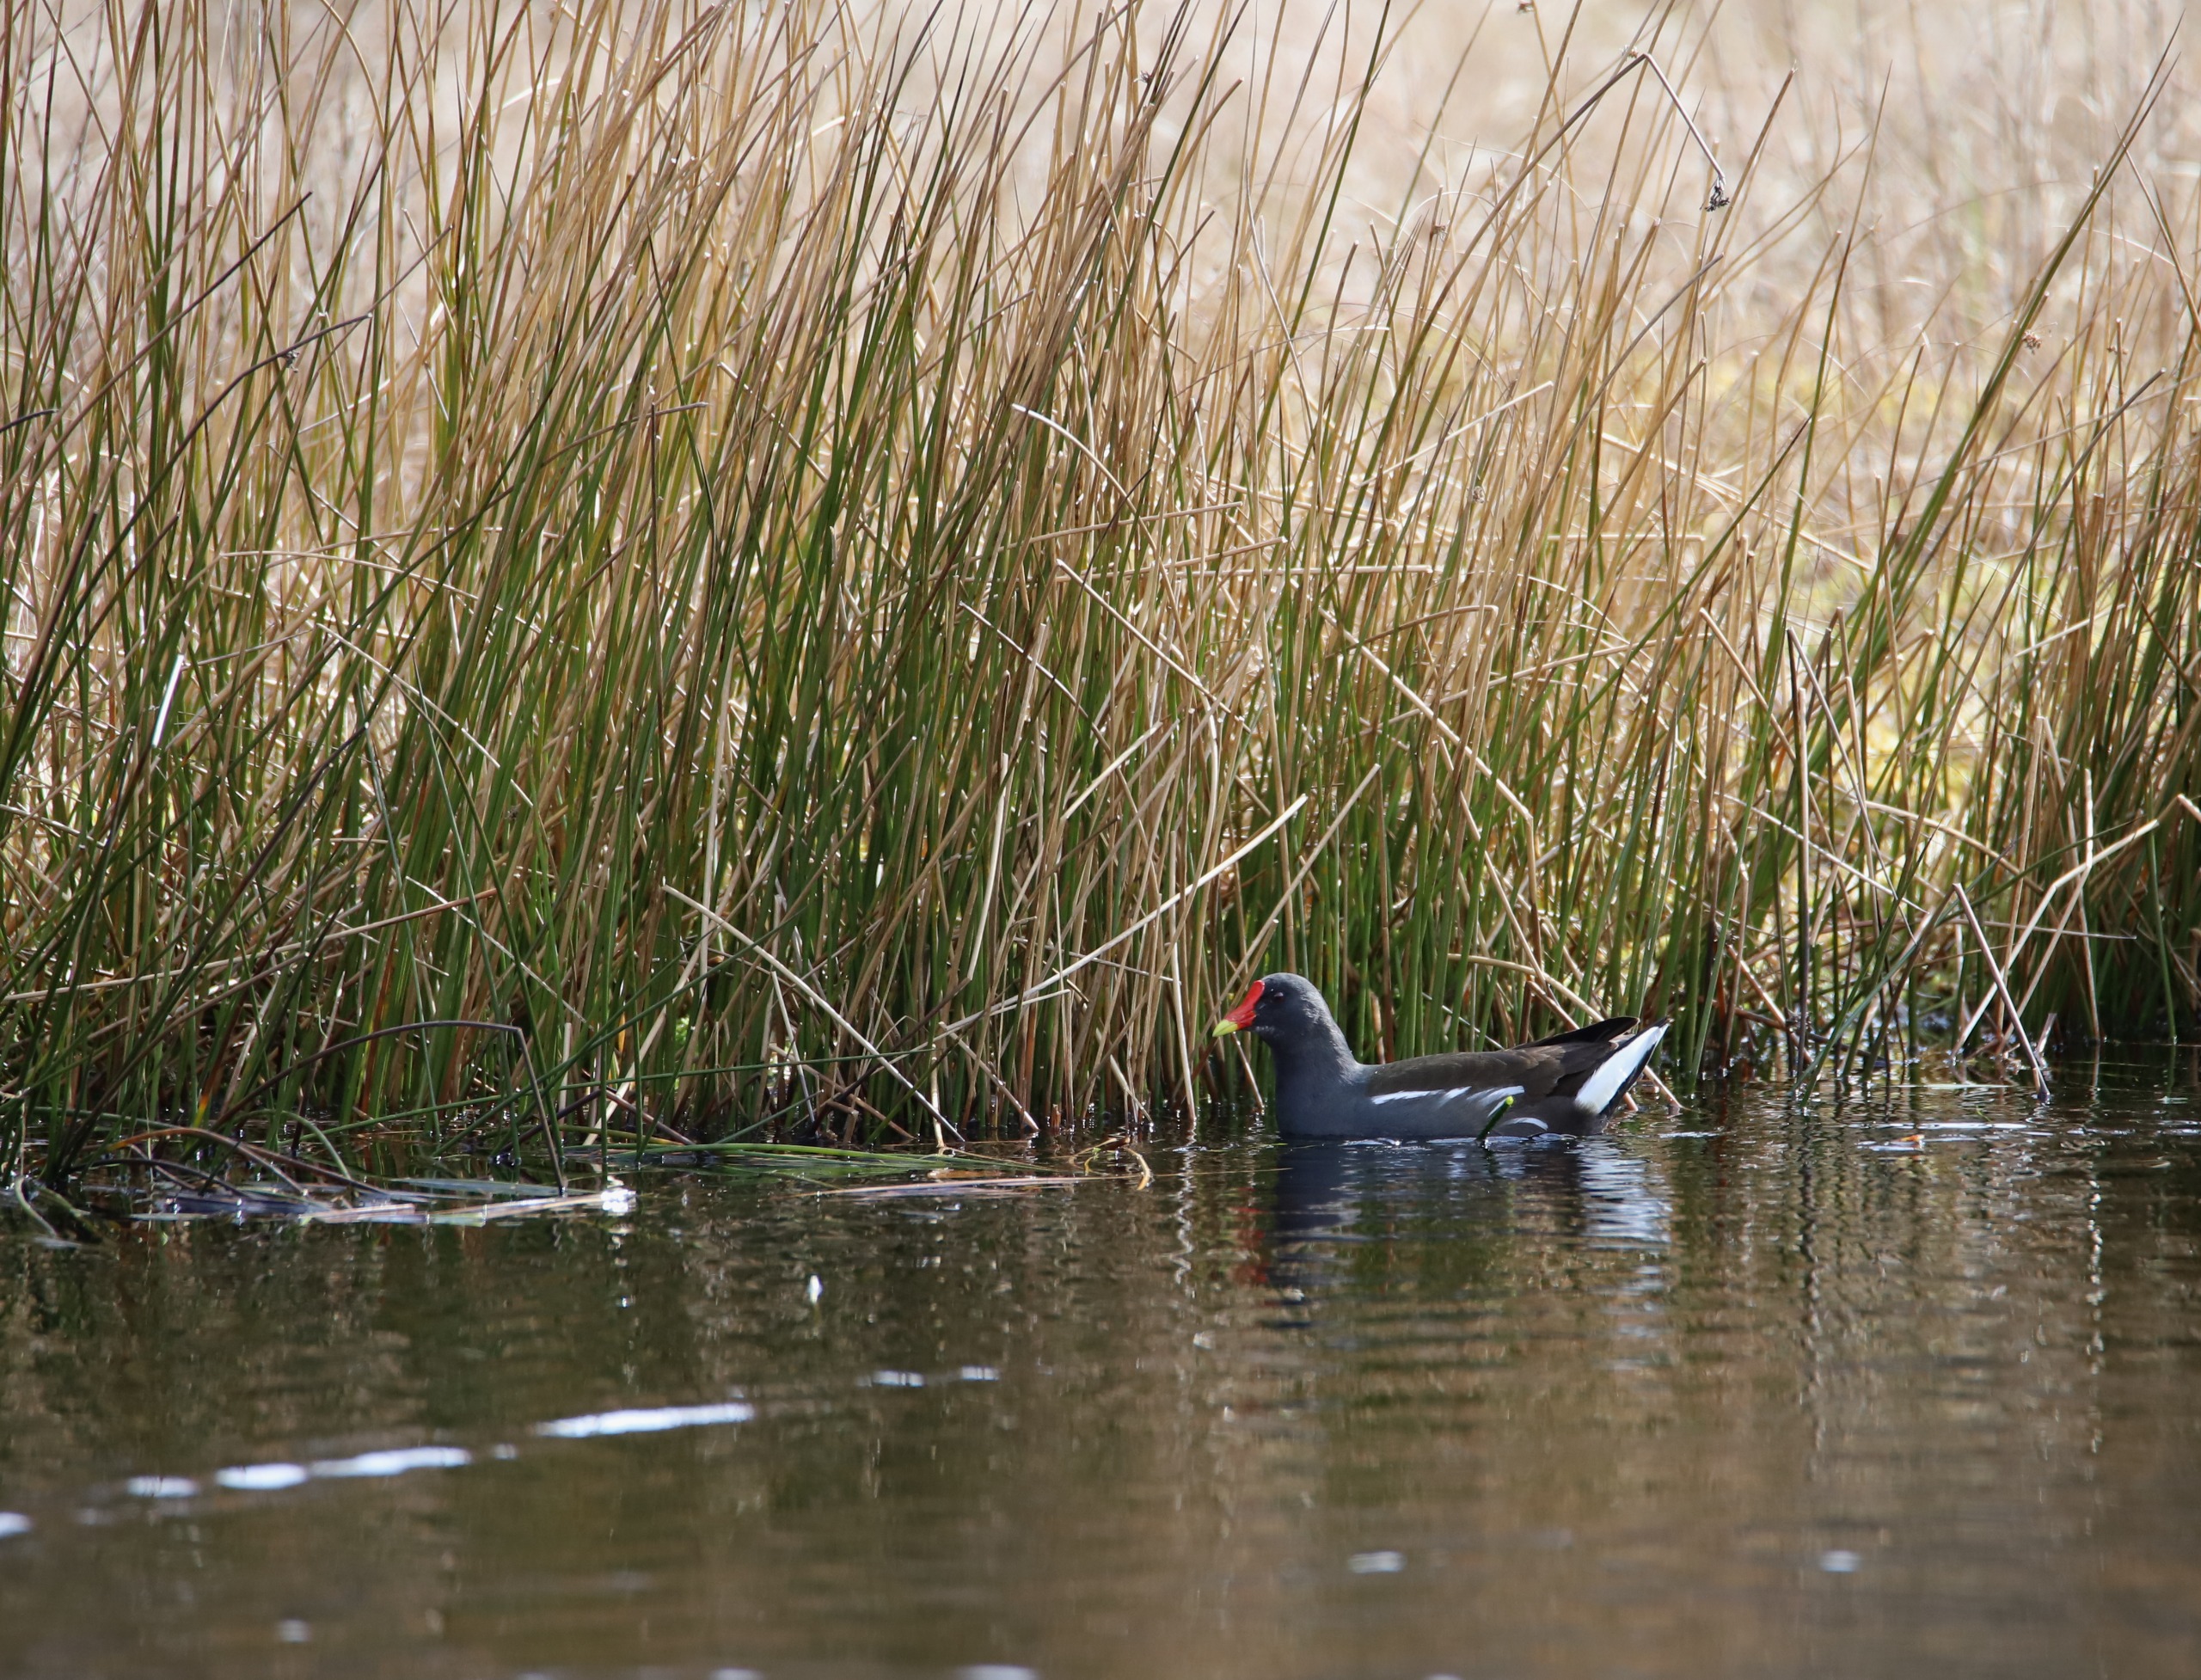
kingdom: Animalia
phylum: Chordata
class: Aves
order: Gruiformes
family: Rallidae
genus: Gallinula
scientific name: Gallinula chloropus
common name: Grønbenet rørhøne
